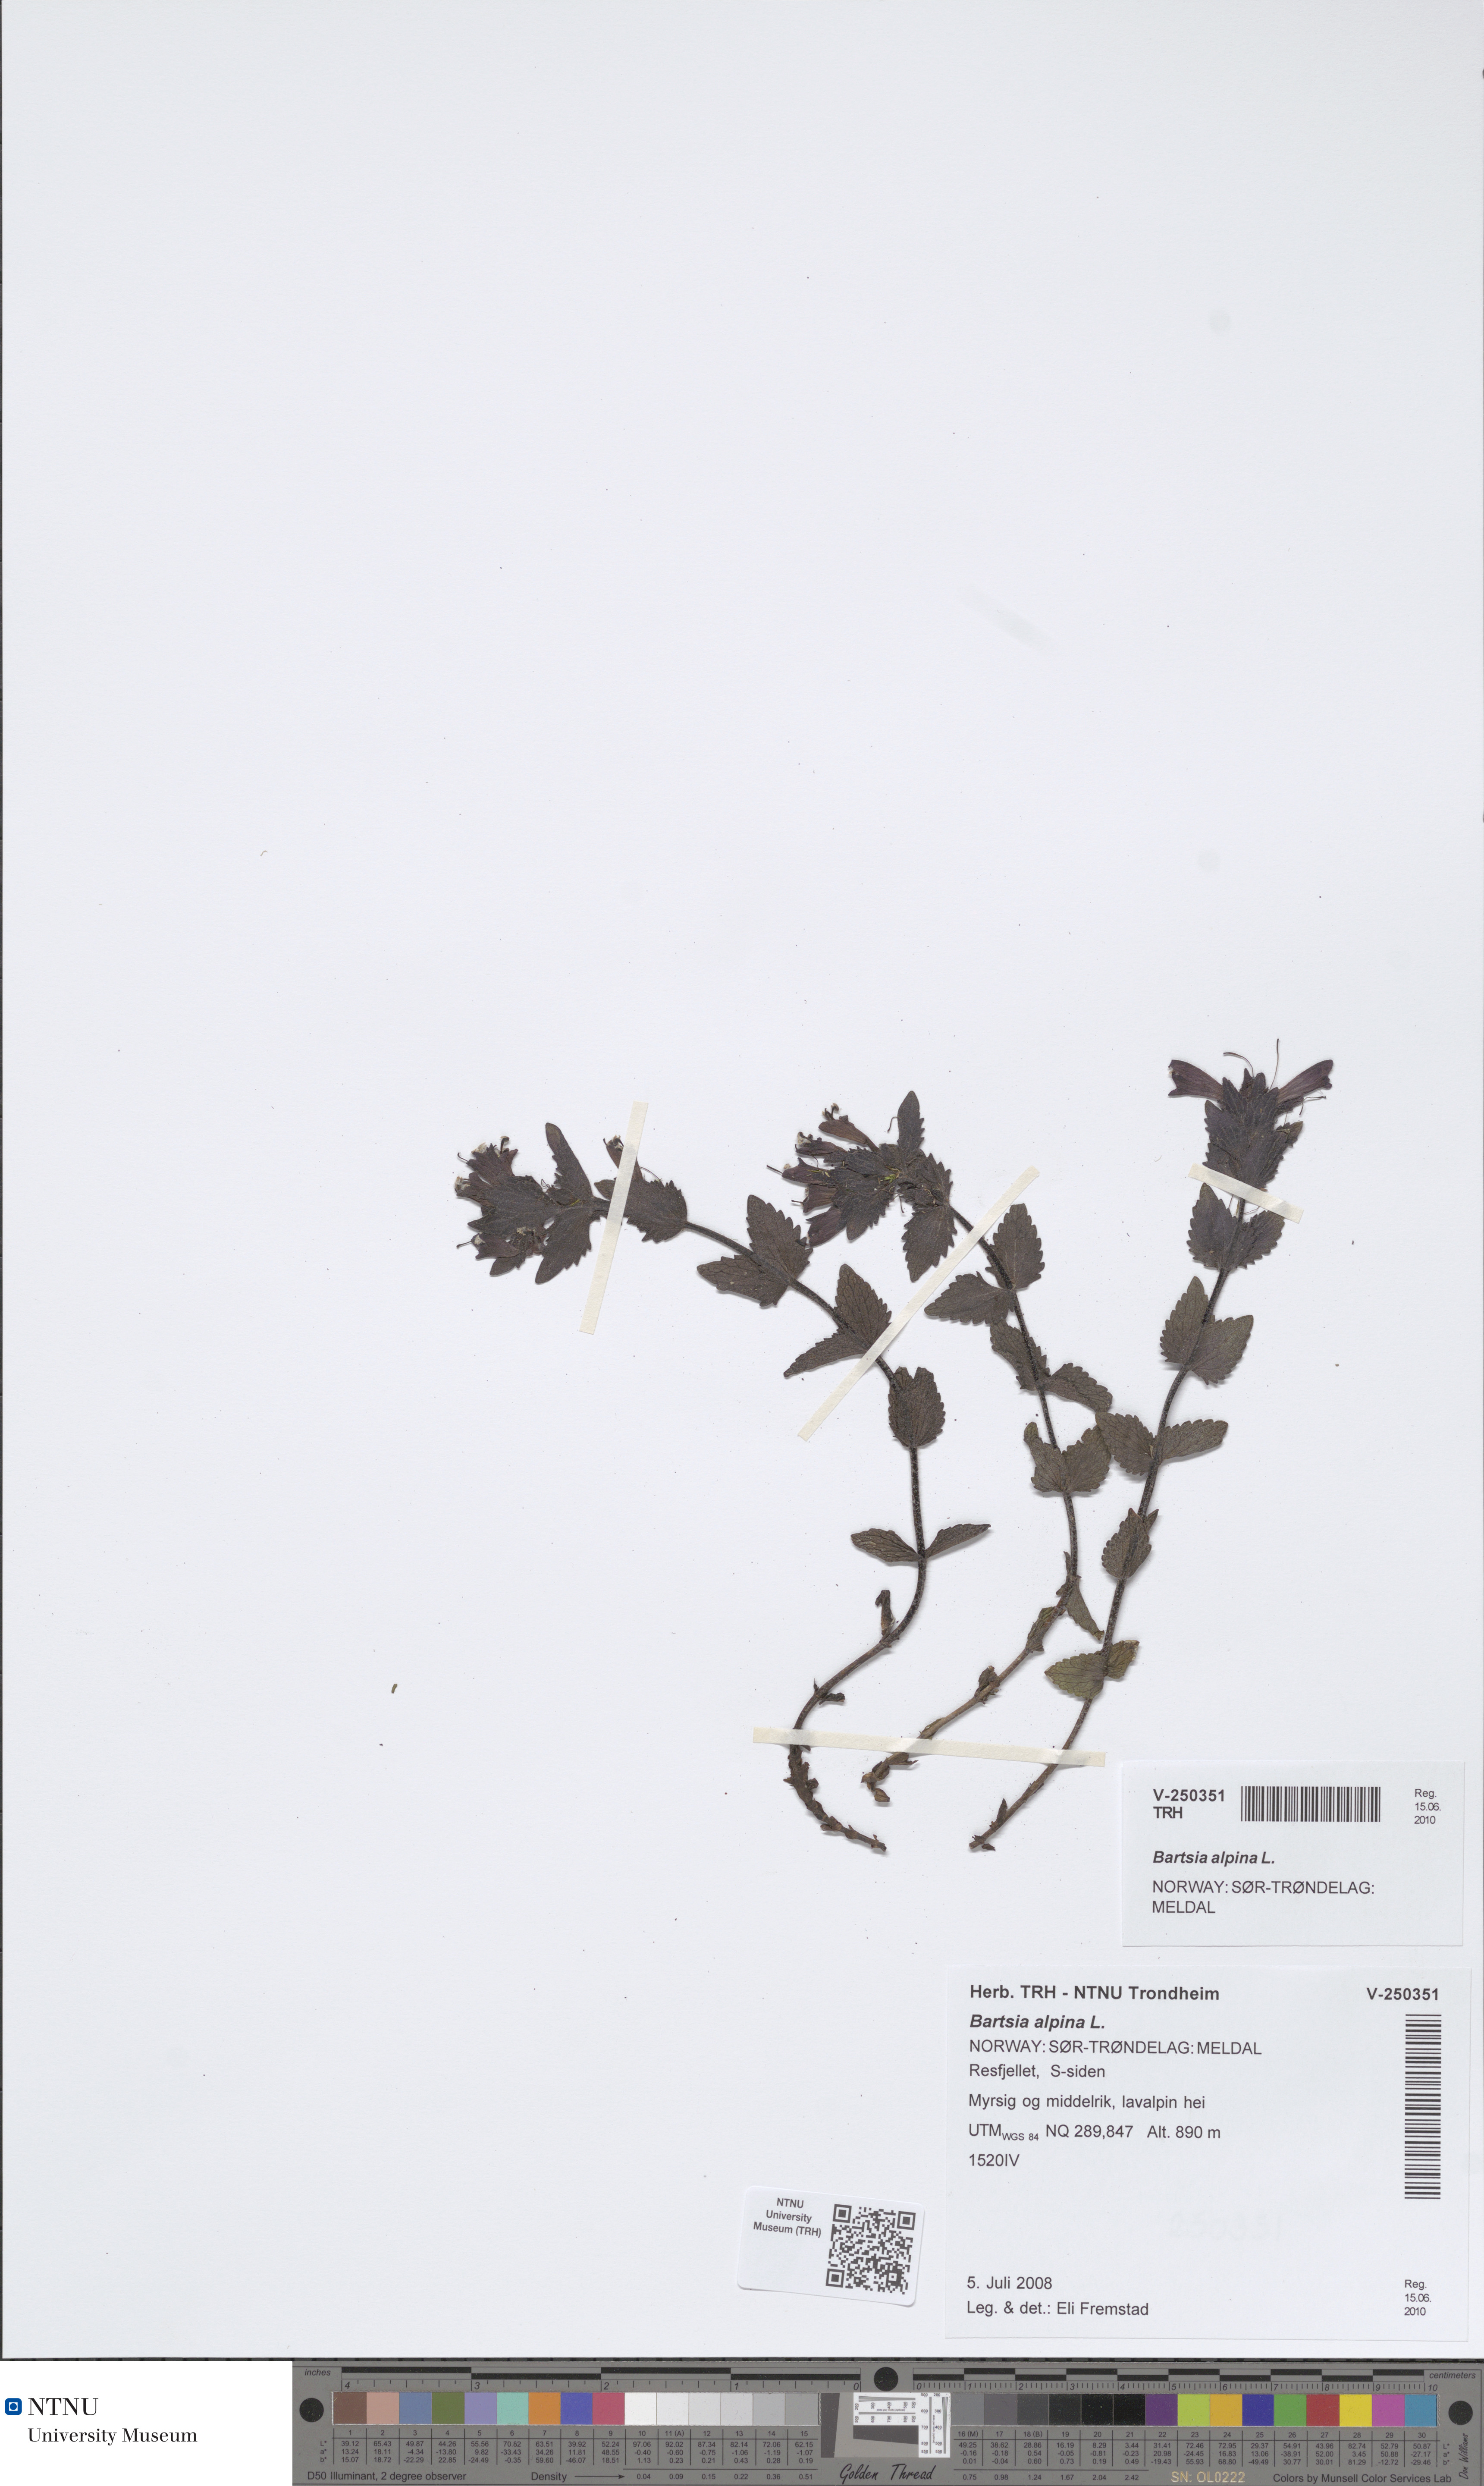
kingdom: Plantae
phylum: Tracheophyta
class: Magnoliopsida
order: Lamiales
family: Orobanchaceae
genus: Bartsia
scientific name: Bartsia alpina
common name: Alpine bartsia
